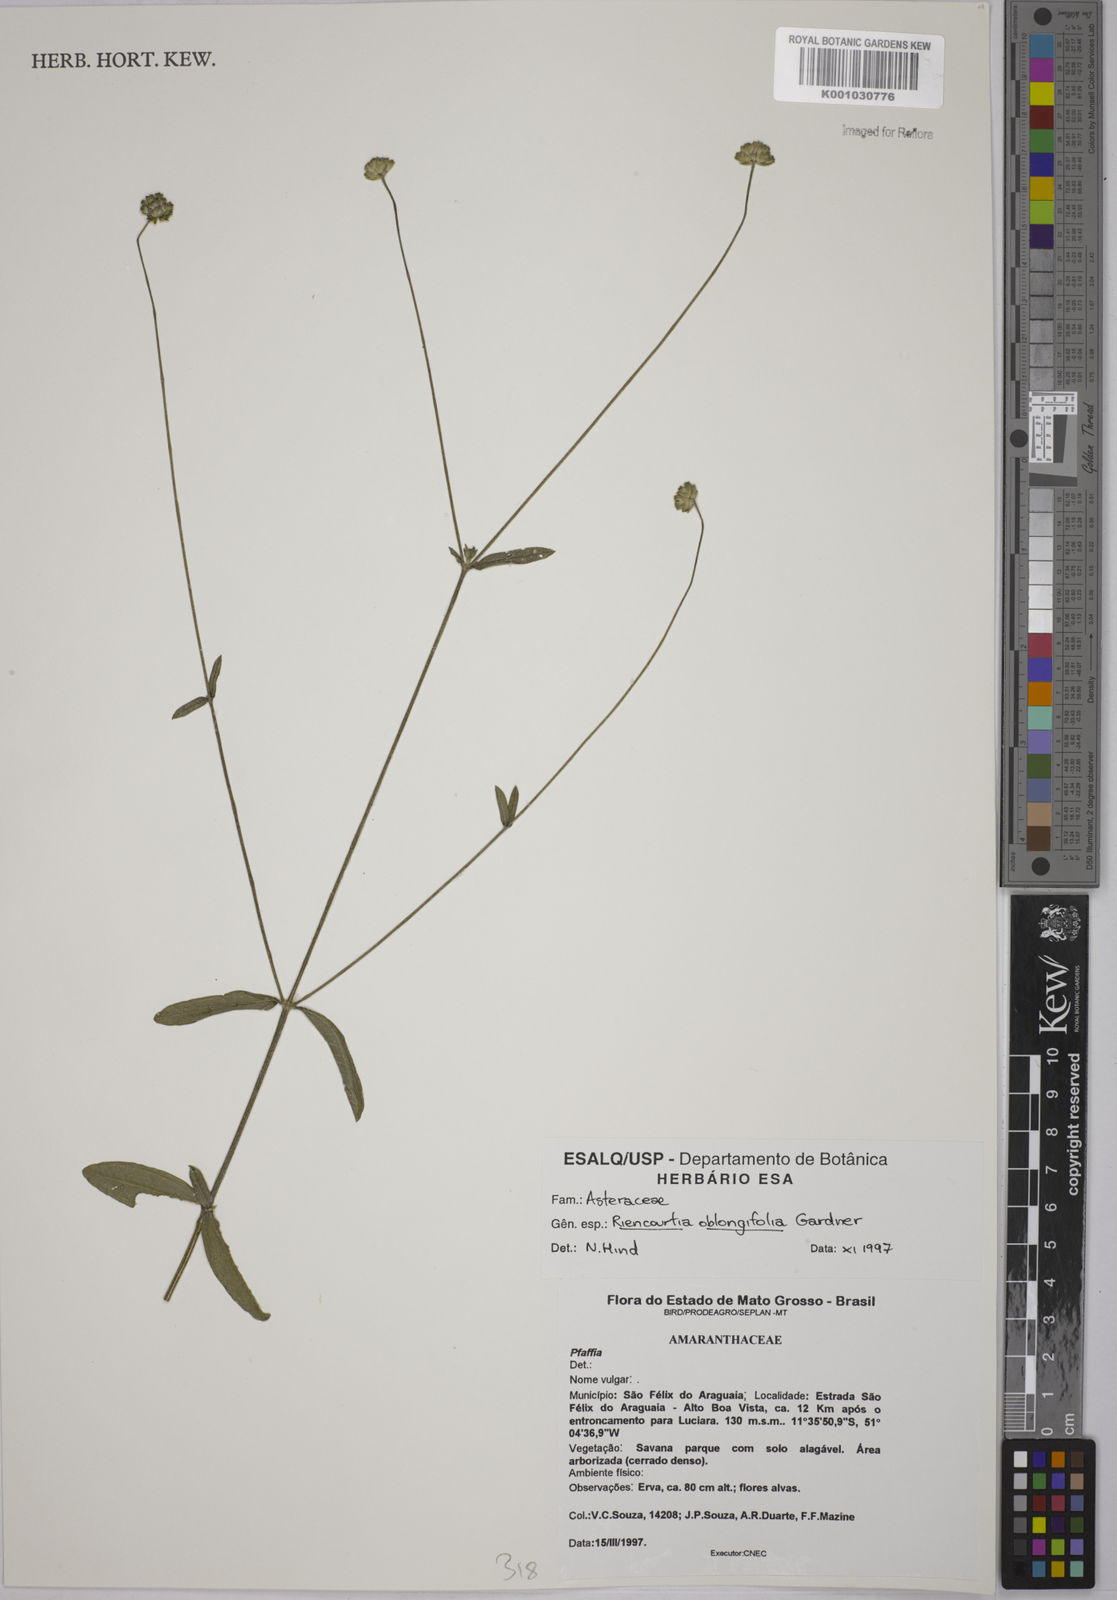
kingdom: Plantae
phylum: Tracheophyta
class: Magnoliopsida
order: Asterales
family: Asteraceae
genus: Riencourtia
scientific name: Riencourtia oblongifolia
